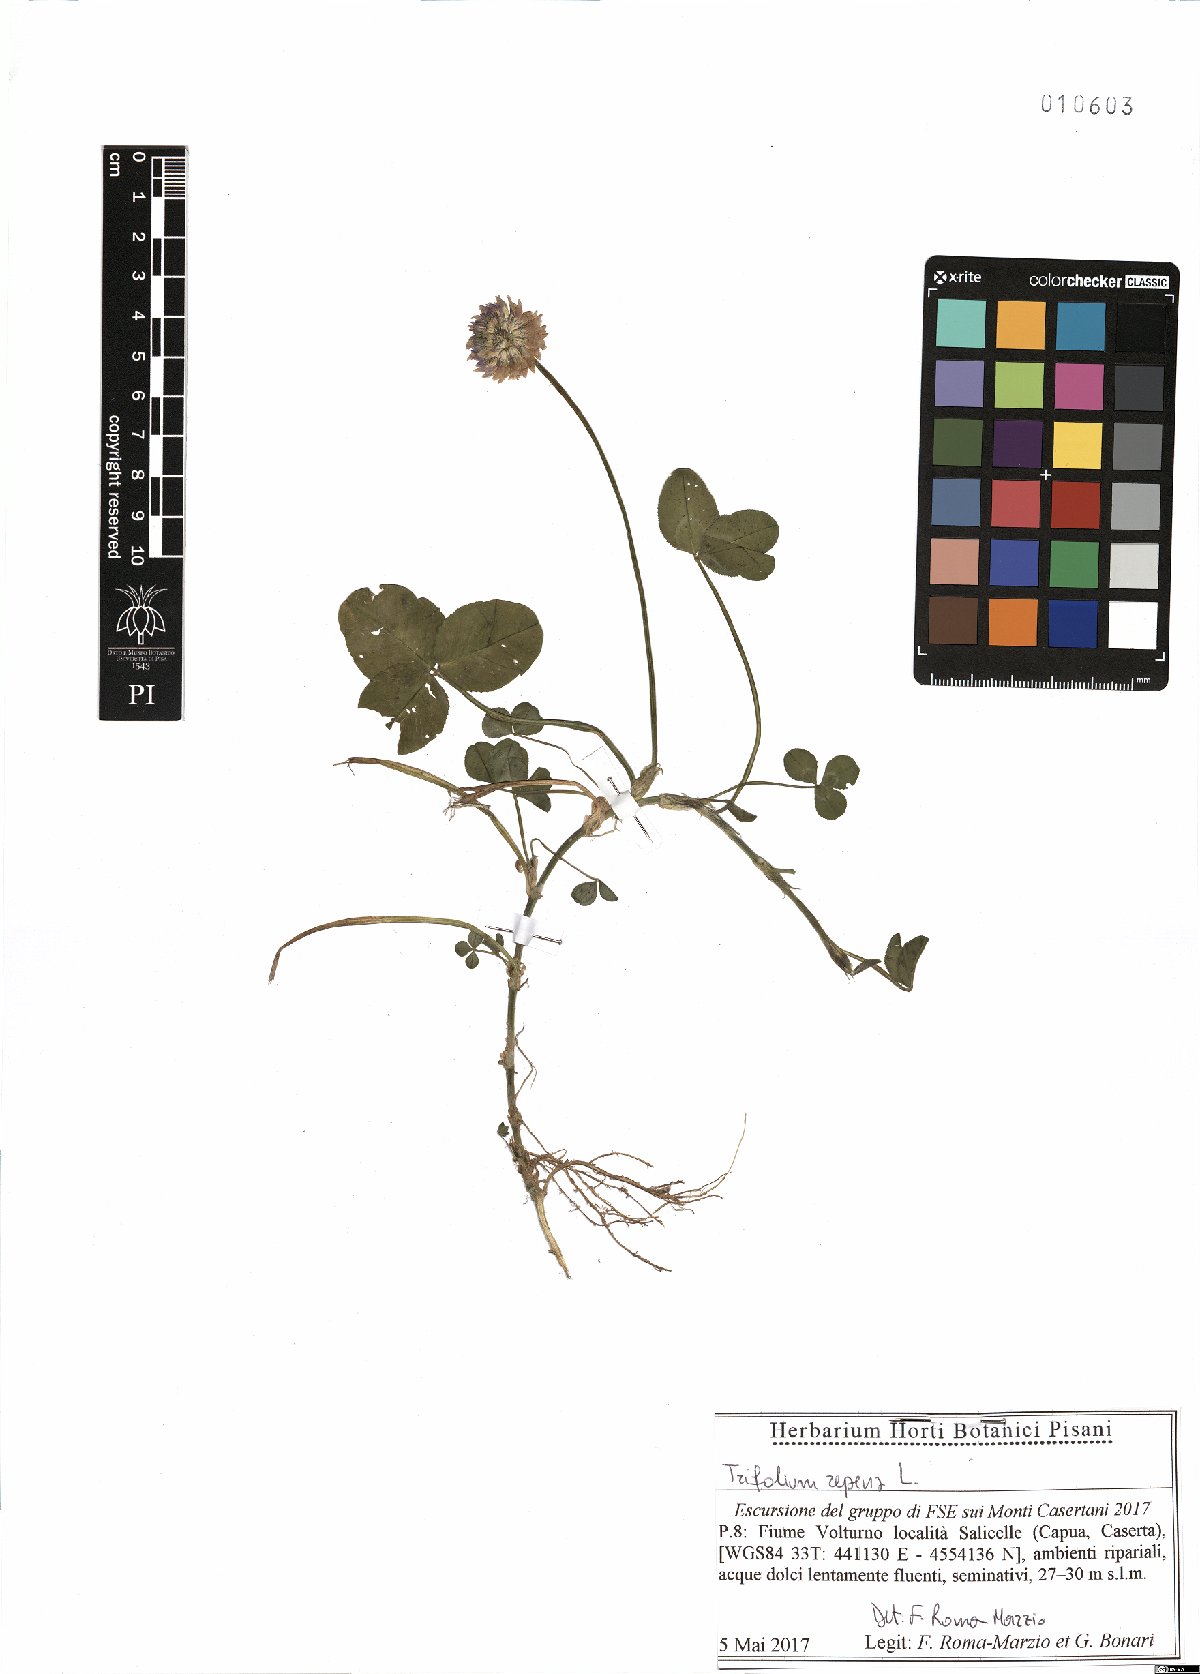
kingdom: Plantae
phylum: Tracheophyta
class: Magnoliopsida
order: Fabales
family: Fabaceae
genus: Trifolium
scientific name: Trifolium repens
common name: White clover
